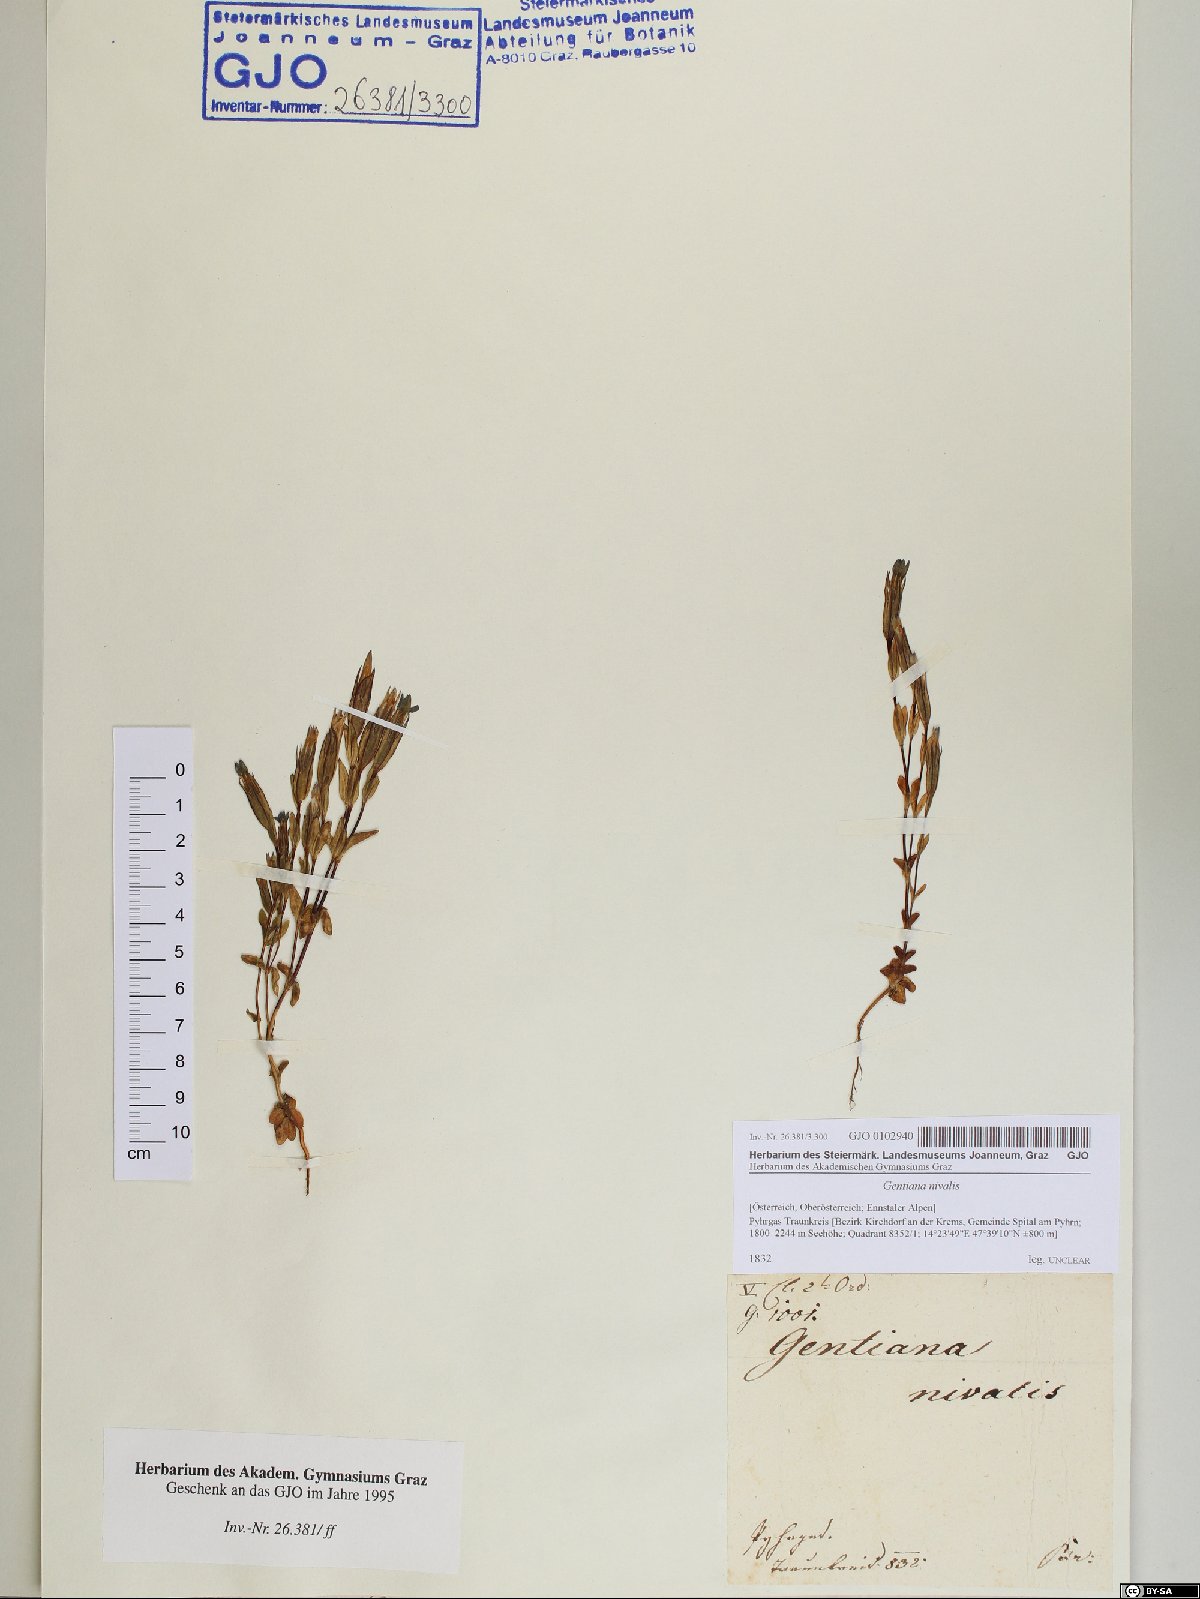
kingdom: Plantae
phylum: Tracheophyta
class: Magnoliopsida
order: Gentianales
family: Gentianaceae
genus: Gentiana
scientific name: Gentiana nivalis
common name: Alpine gentian
